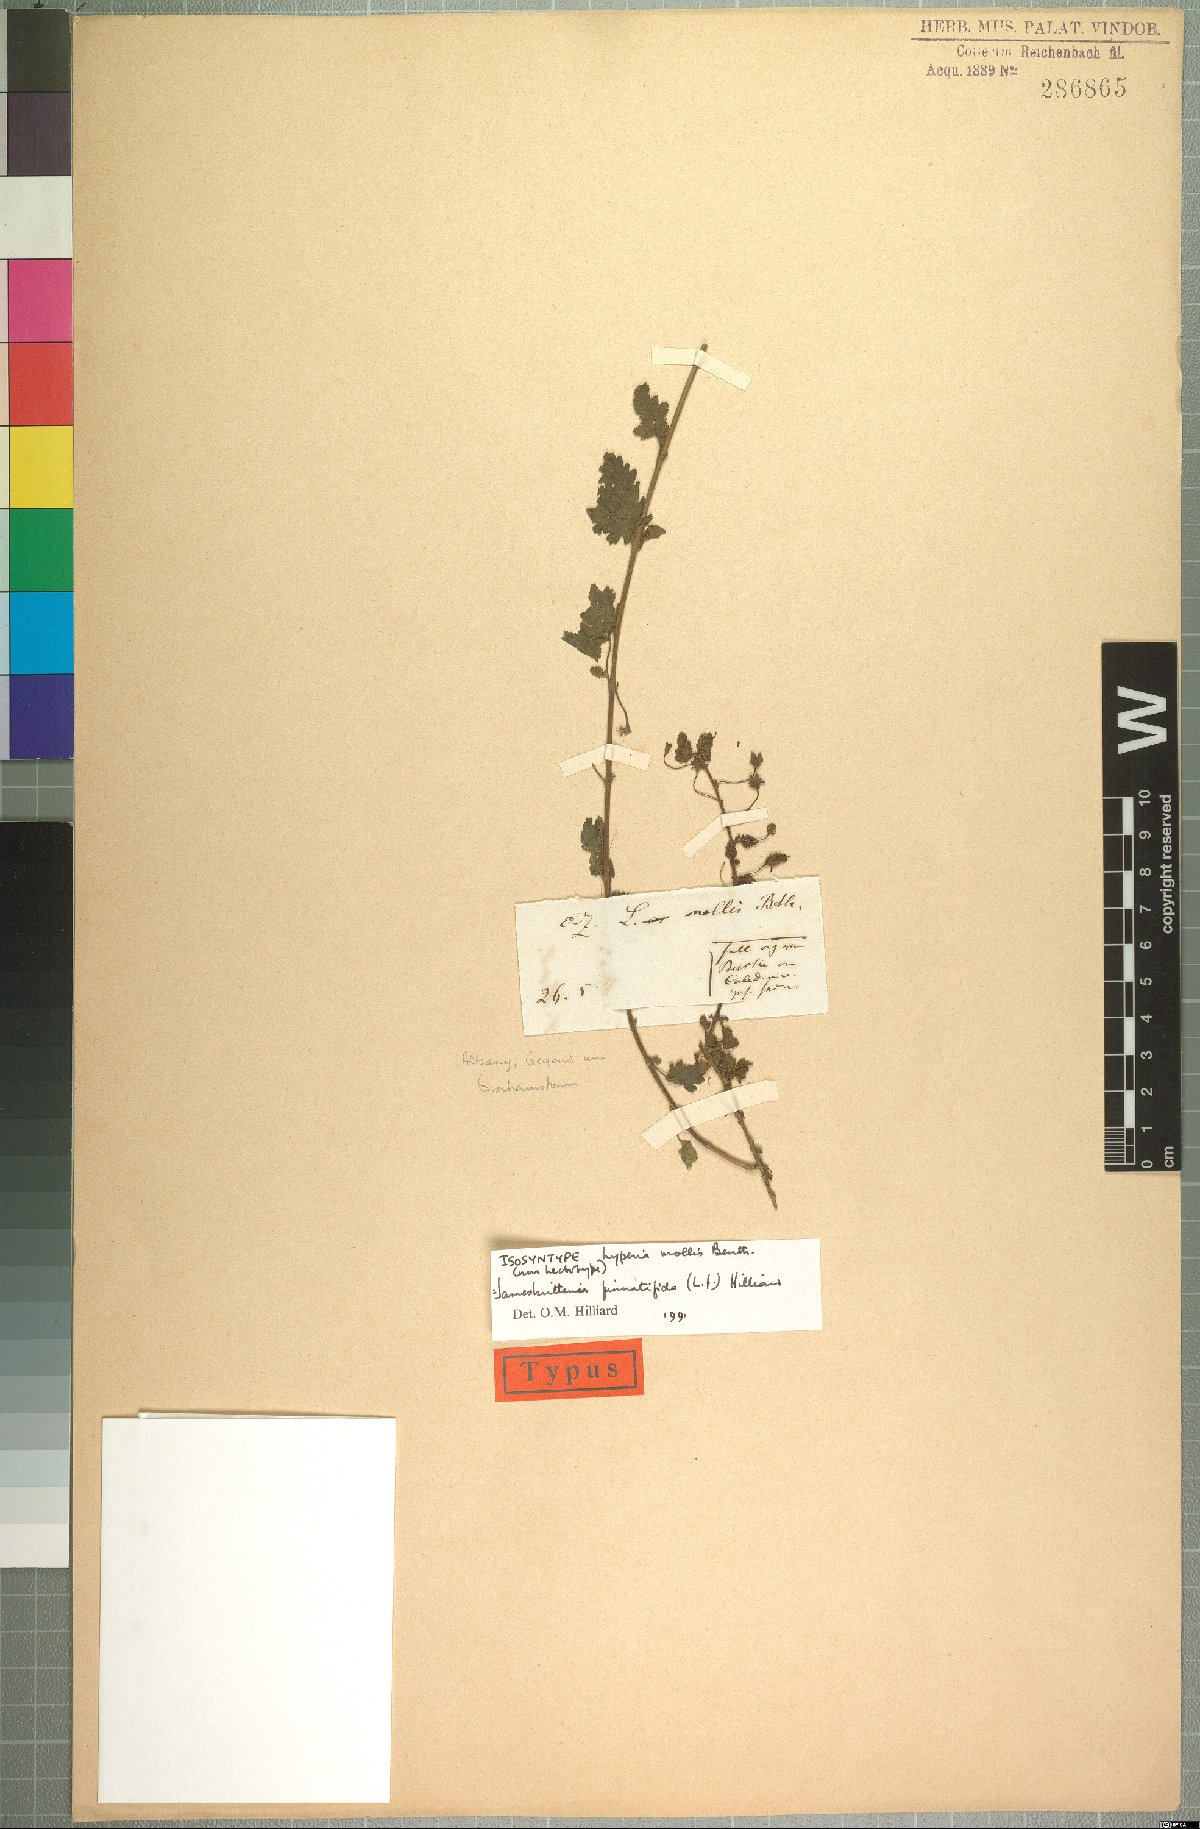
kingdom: Plantae
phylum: Tracheophyta
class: Magnoliopsida
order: Lamiales
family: Scrophulariaceae
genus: Jamesbrittenia
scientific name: Jamesbrittenia pinnatifida
